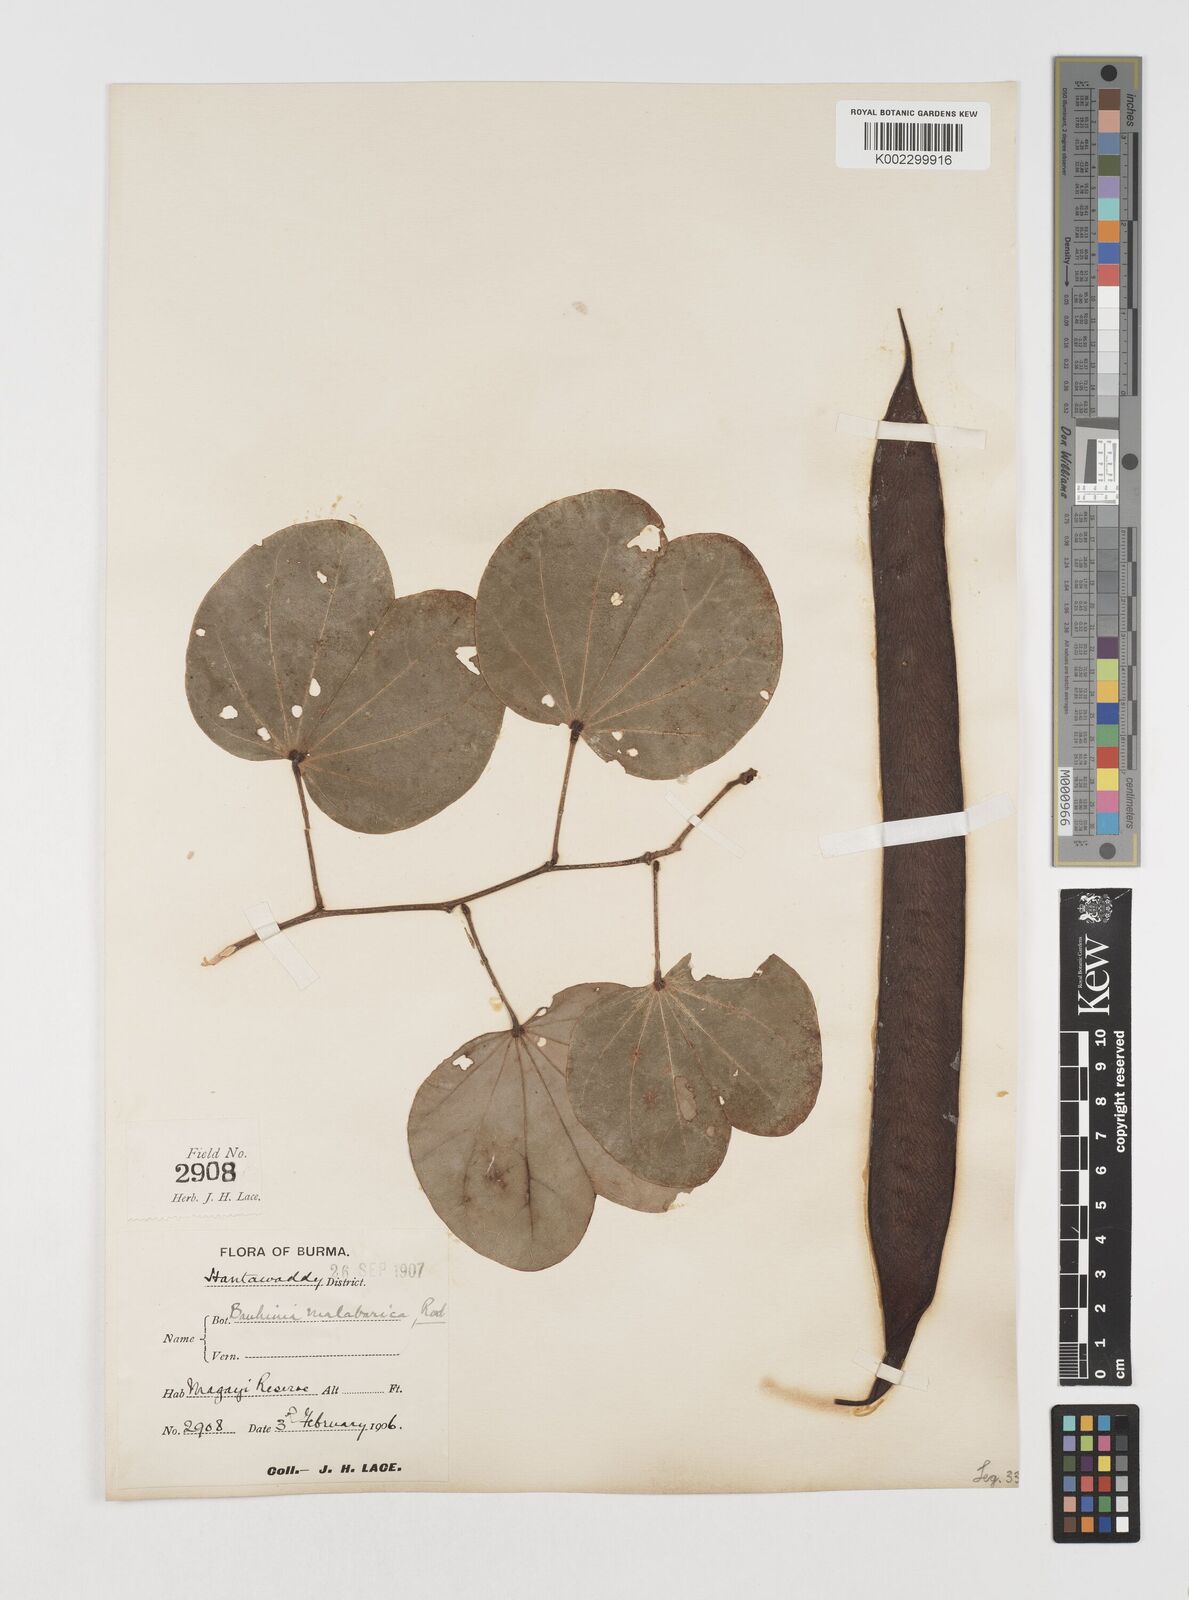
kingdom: Plantae
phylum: Tracheophyta
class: Magnoliopsida
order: Fabales
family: Fabaceae
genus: Piliostigma
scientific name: Piliostigma malabaricum
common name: Malabar bauhinia
